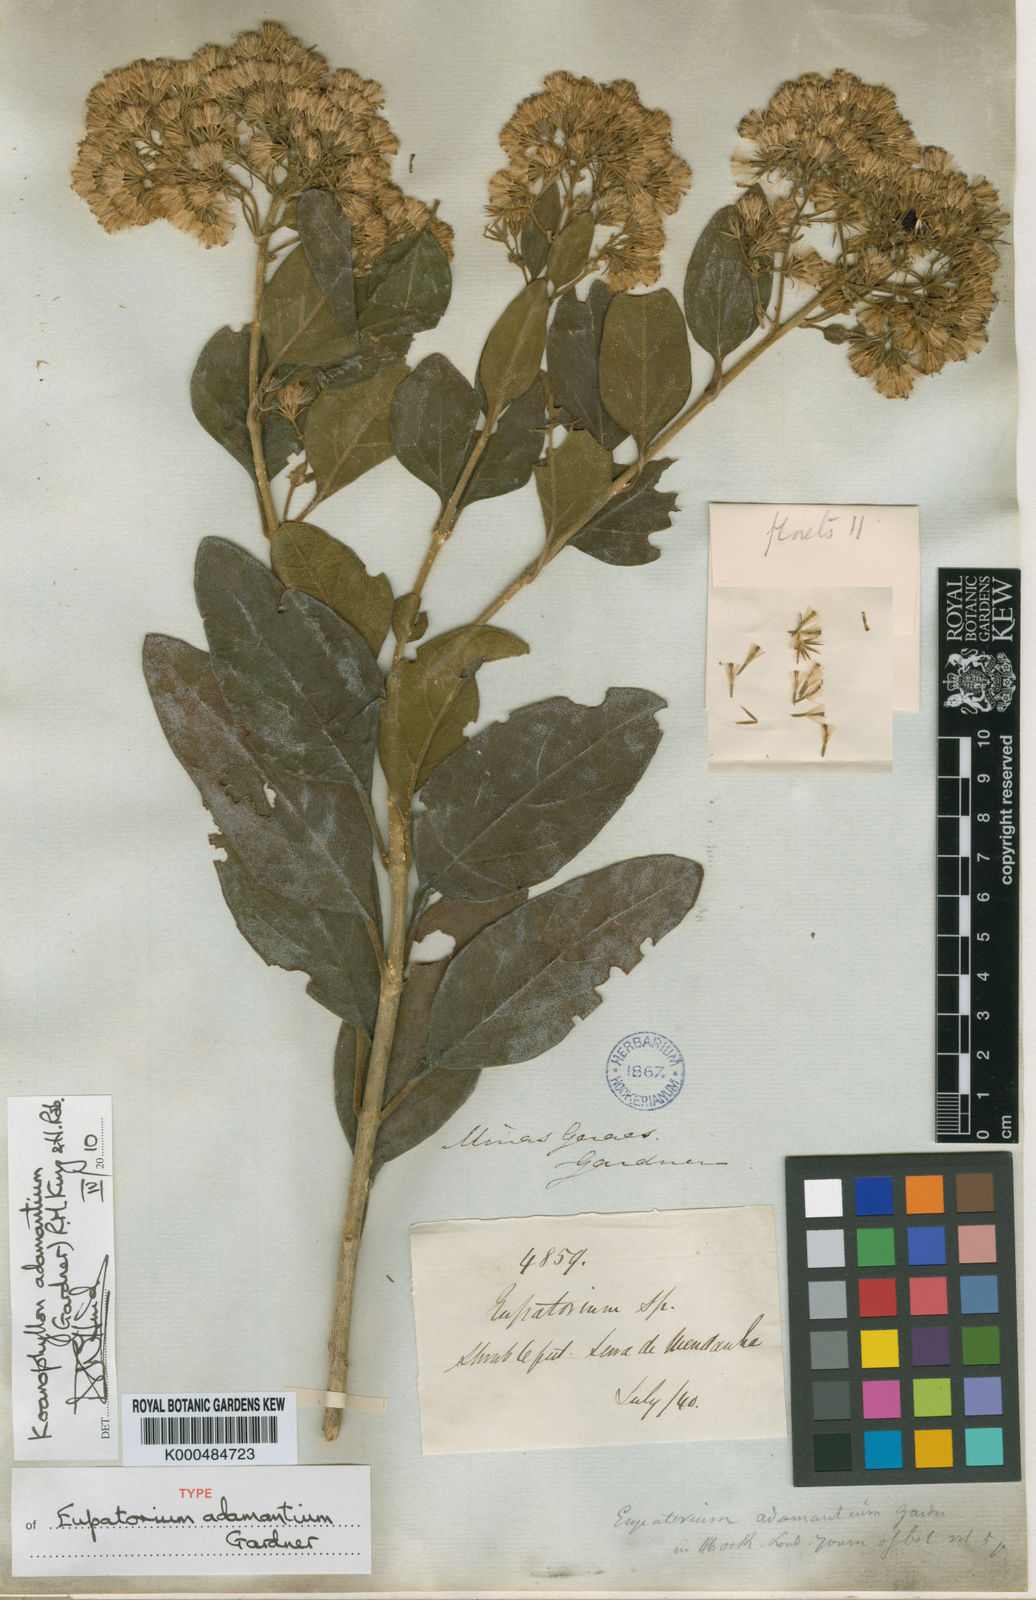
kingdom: Plantae
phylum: Tracheophyta
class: Magnoliopsida
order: Asterales
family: Asteraceae
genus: Koanophyllon
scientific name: Koanophyllon adamantium
